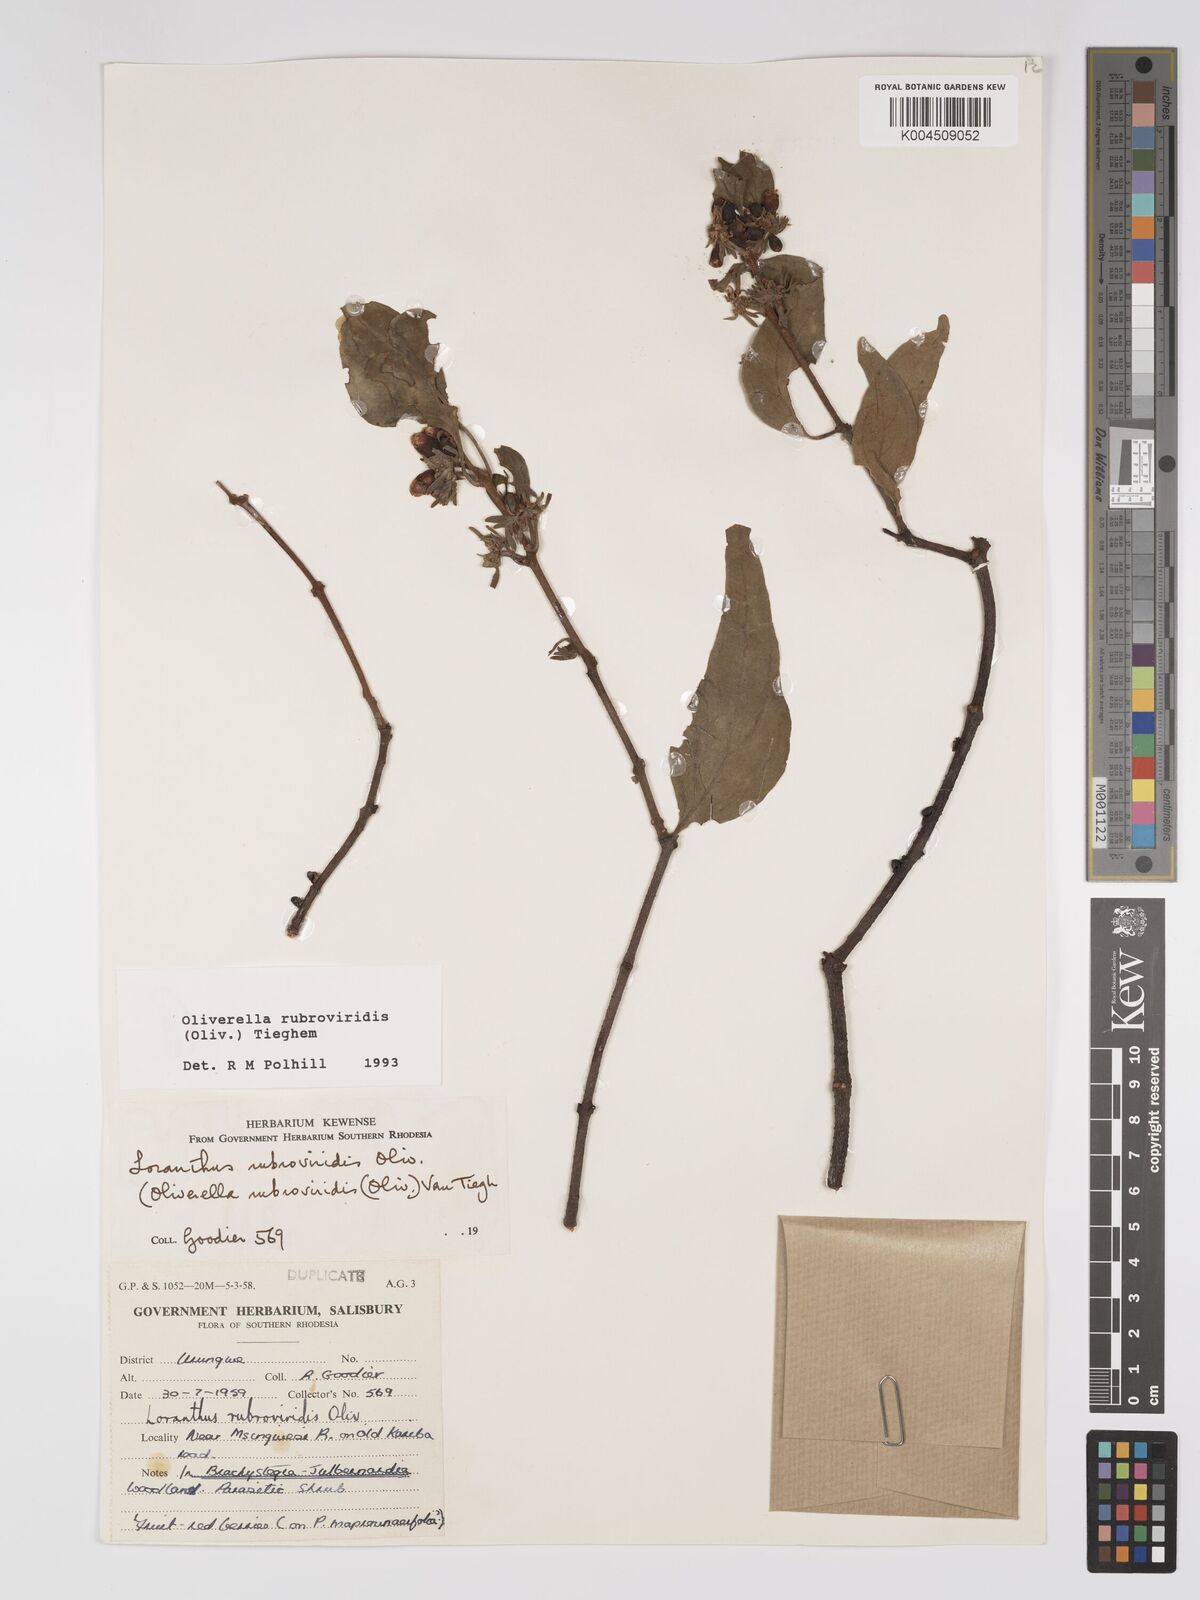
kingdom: Plantae
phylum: Tracheophyta
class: Magnoliopsida
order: Santalales
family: Loranthaceae
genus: Oliverella
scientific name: Oliverella rubroviridis
